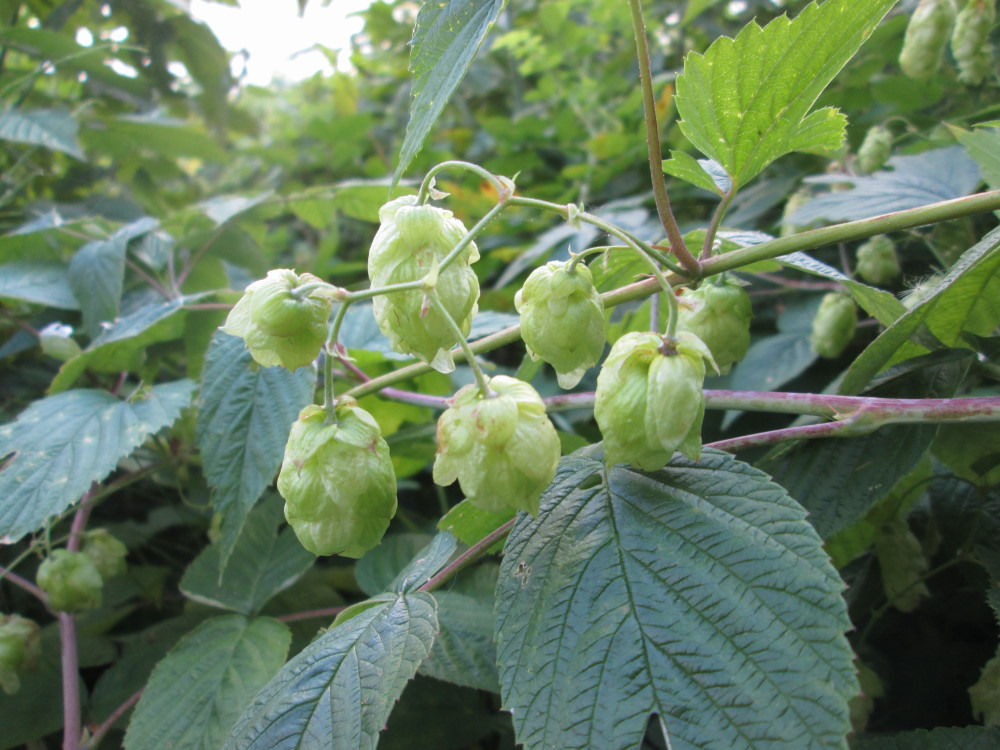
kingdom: Plantae
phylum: Tracheophyta
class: Magnoliopsida
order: Rosales
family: Cannabaceae
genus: Humulus
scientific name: Humulus lupulus
